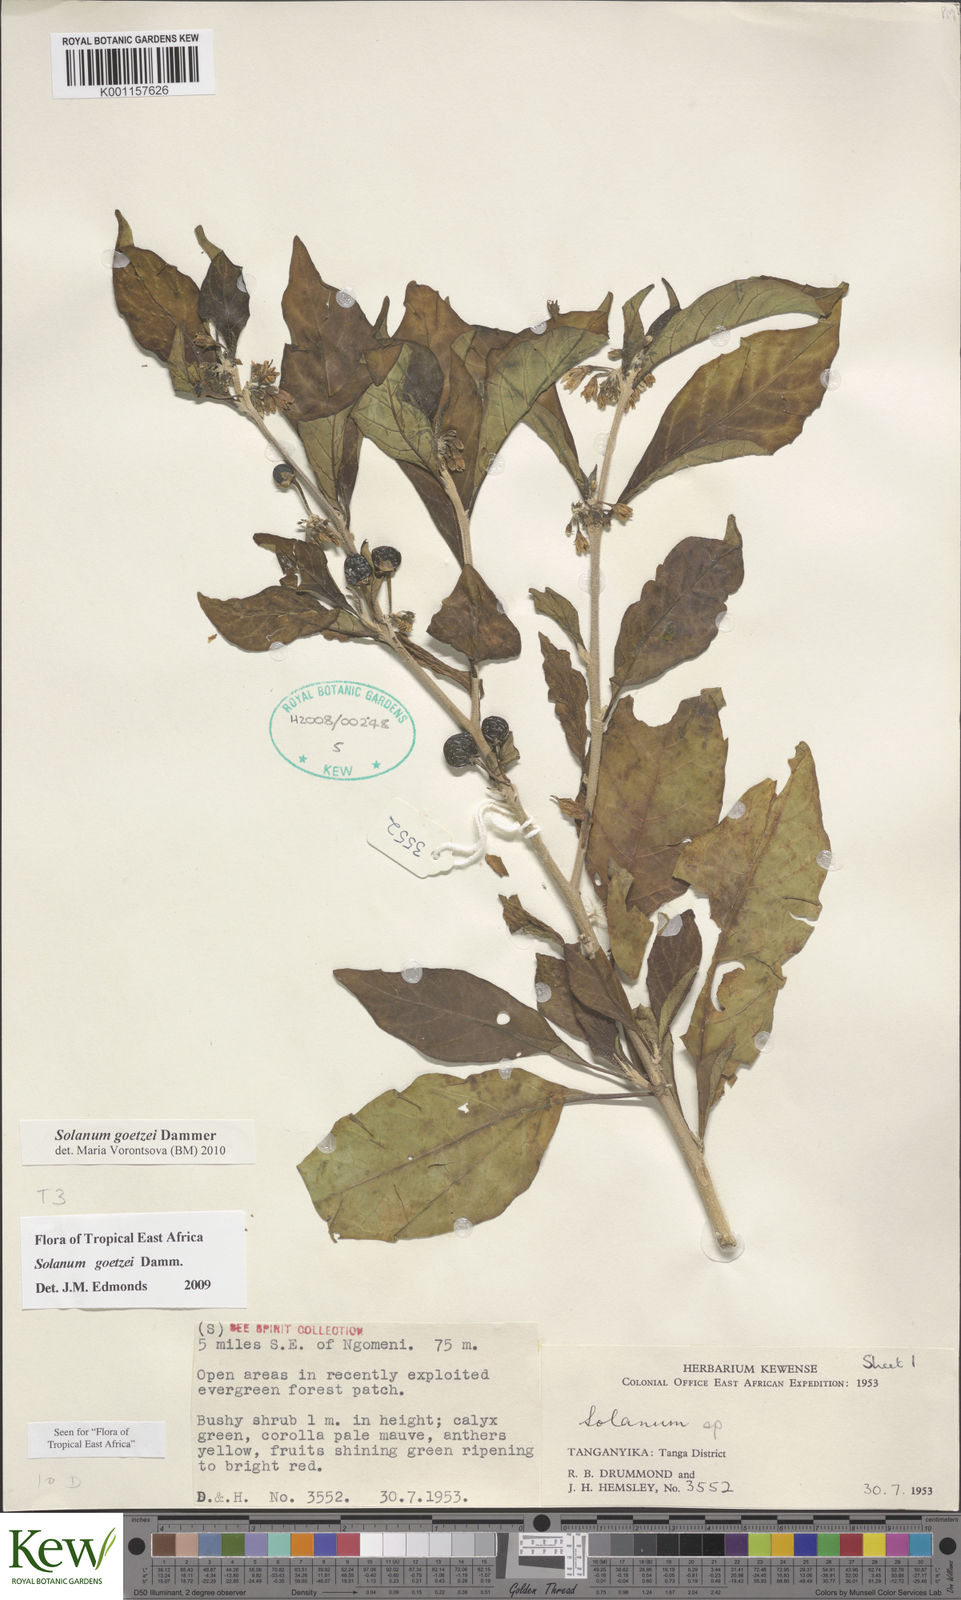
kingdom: Plantae
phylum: Tracheophyta
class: Magnoliopsida
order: Solanales
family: Solanaceae
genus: Solanum
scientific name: Solanum goetzei
